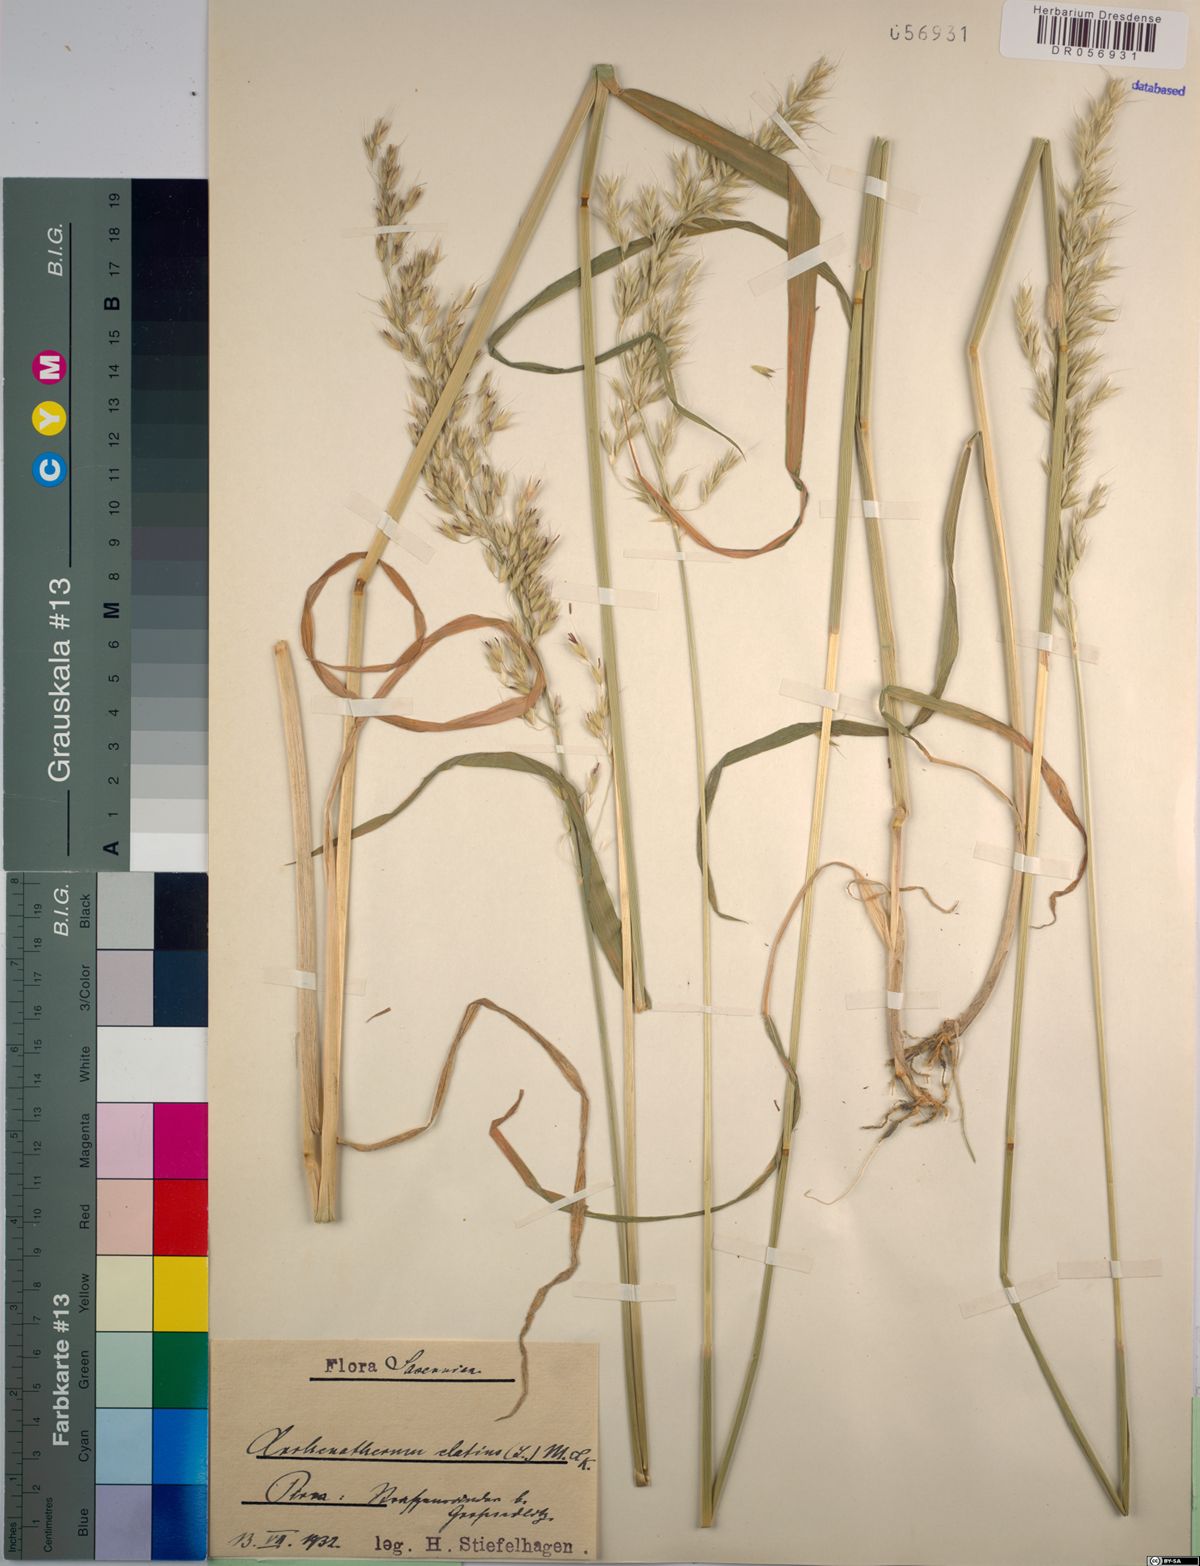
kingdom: Plantae
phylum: Tracheophyta
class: Liliopsida
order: Poales
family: Poaceae
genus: Arrhenatherum
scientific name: Arrhenatherum elatius
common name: Tall oatgrass
